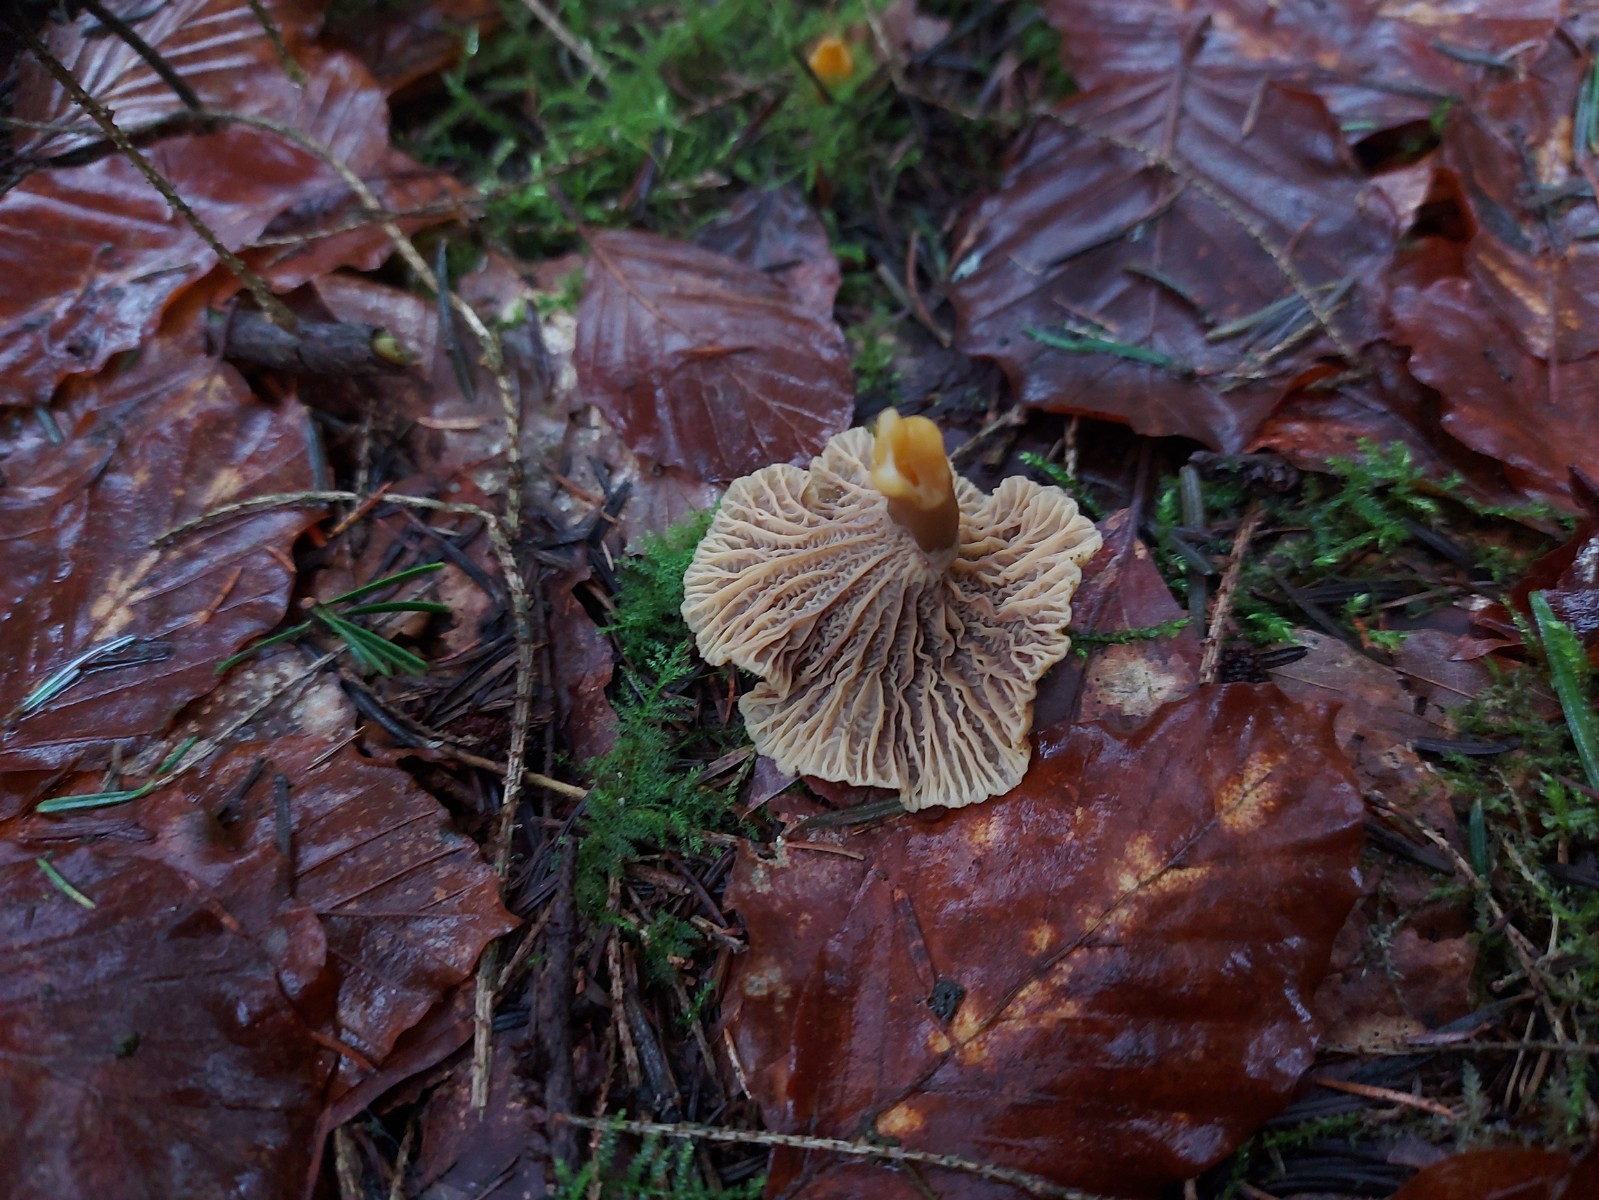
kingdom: Fungi
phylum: Basidiomycota
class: Agaricomycetes
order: Cantharellales
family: Hydnaceae
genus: Craterellus
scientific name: Craterellus tubaeformis
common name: tragt-kantarel
